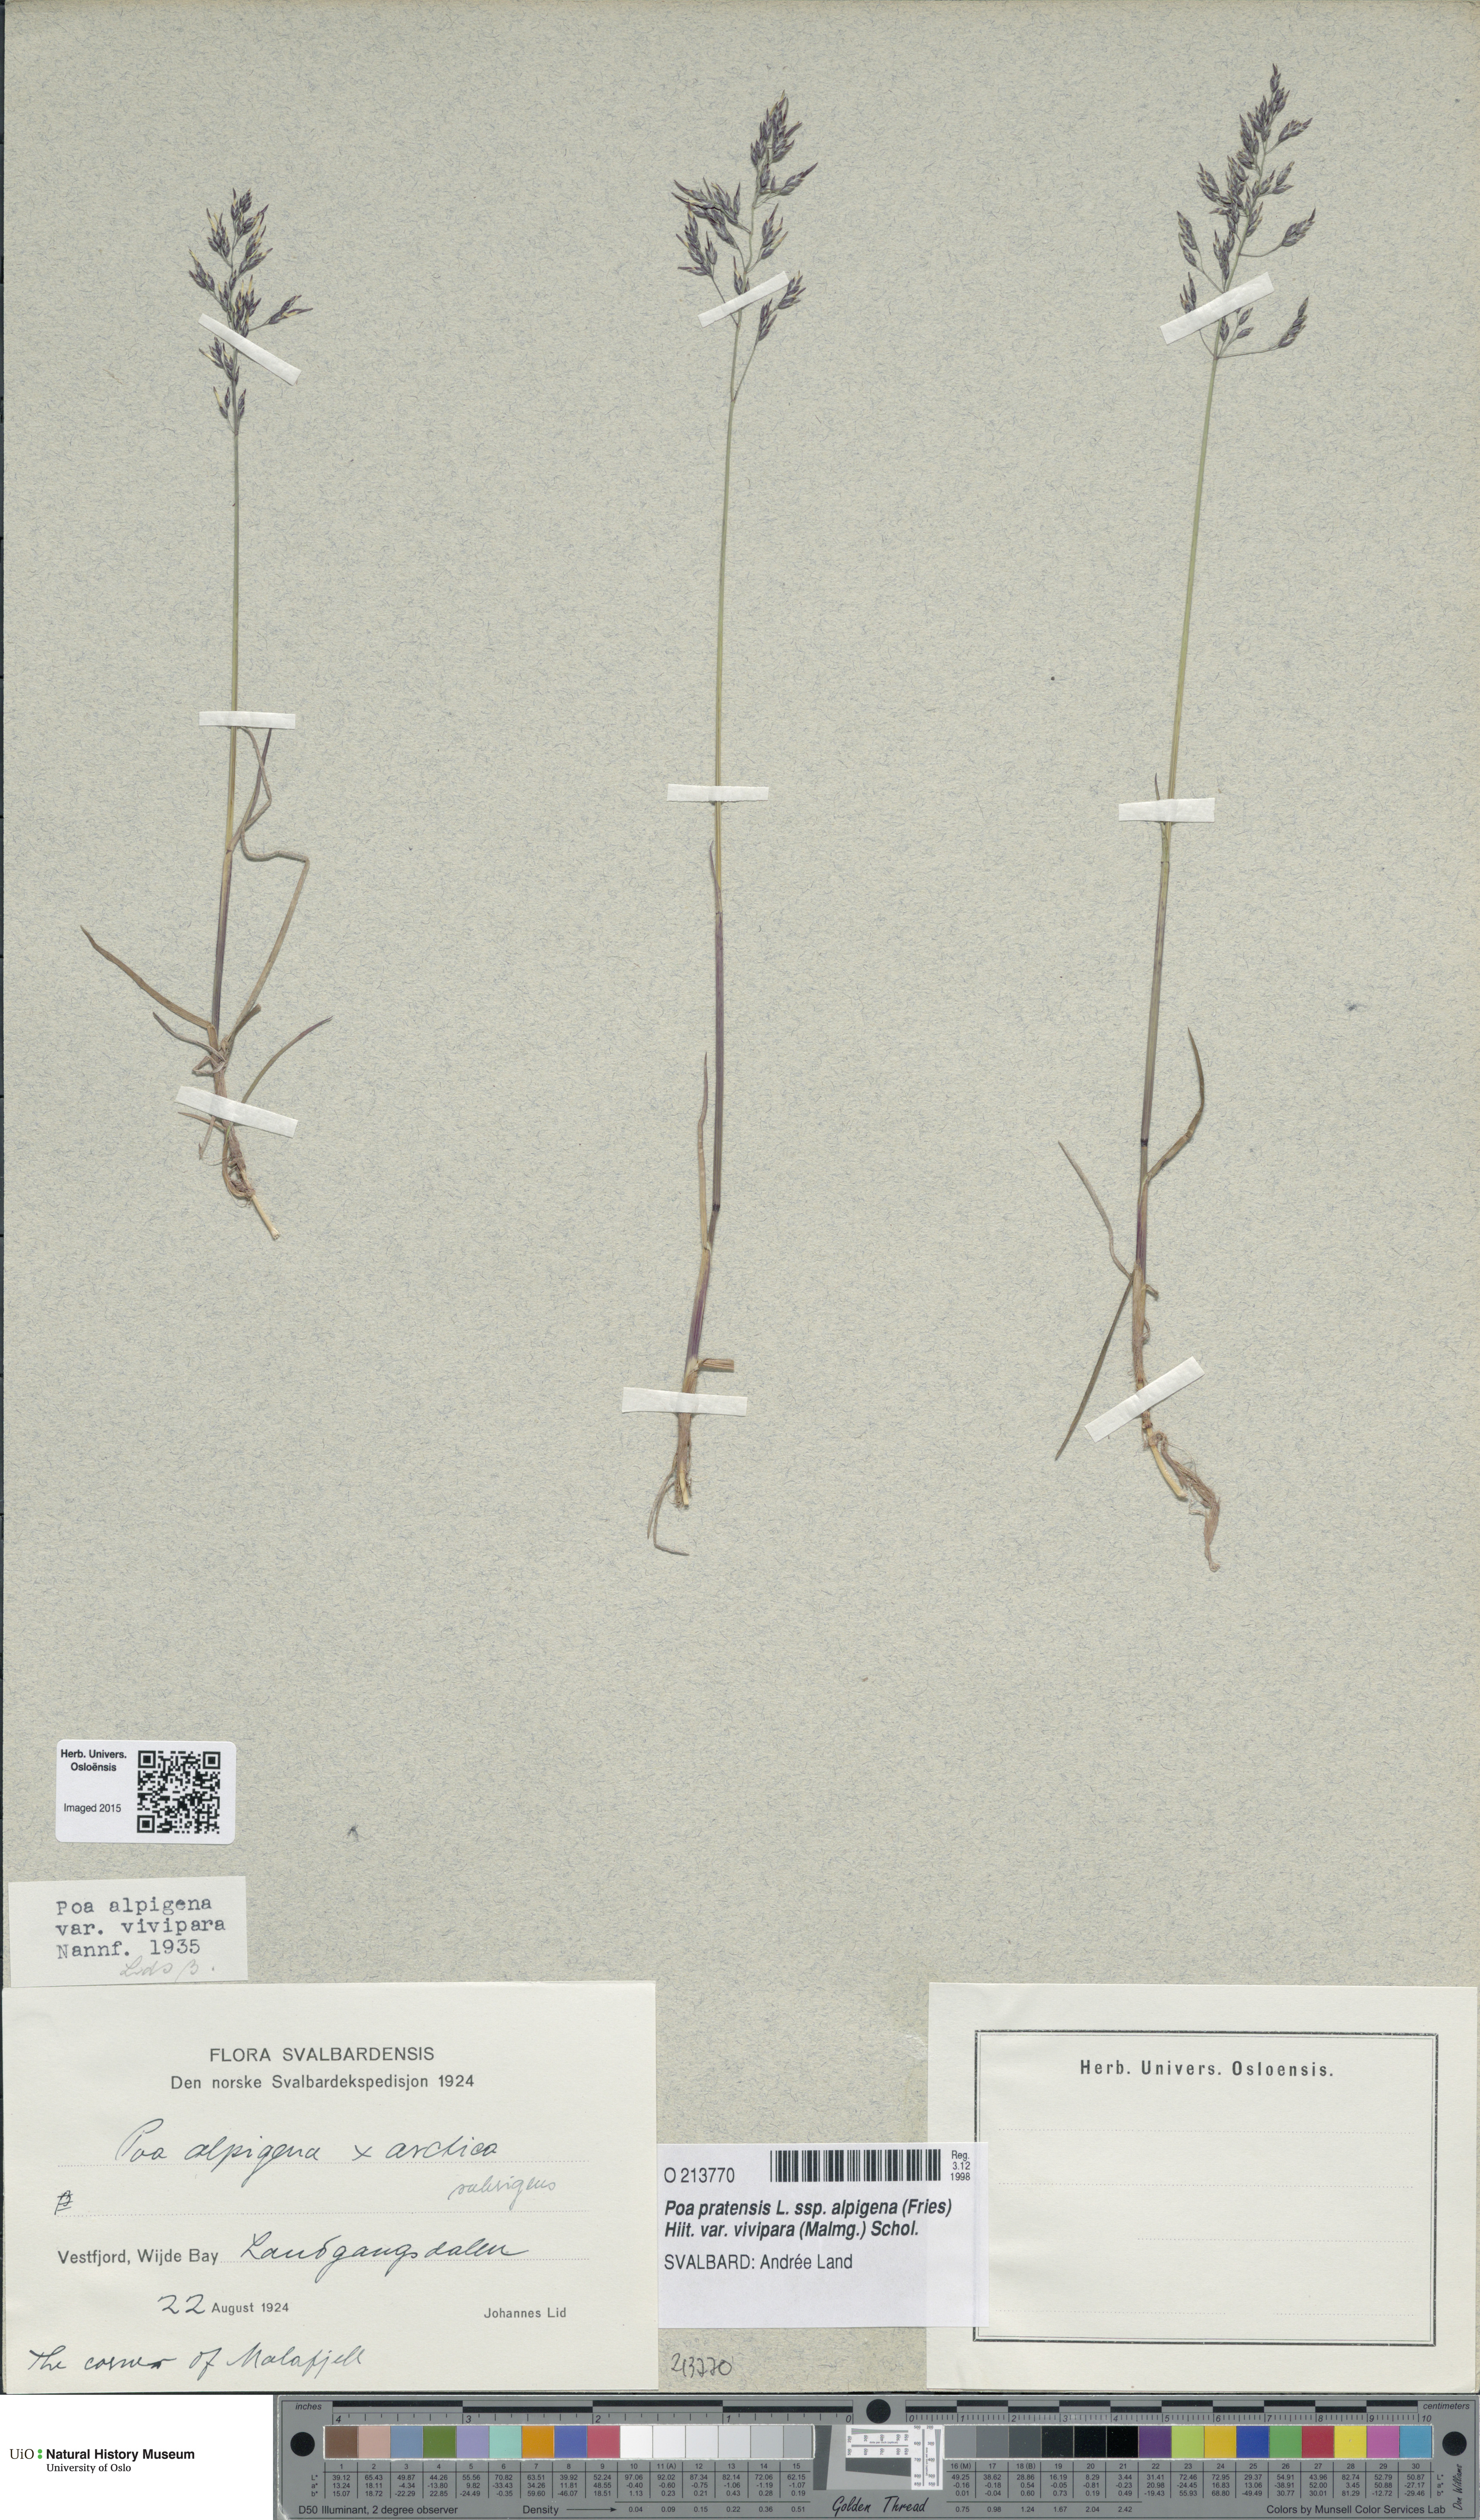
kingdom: Plantae
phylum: Tracheophyta
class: Liliopsida
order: Poales
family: Poaceae
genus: Poa
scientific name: Poa arctica
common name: Arctic bluegrass
